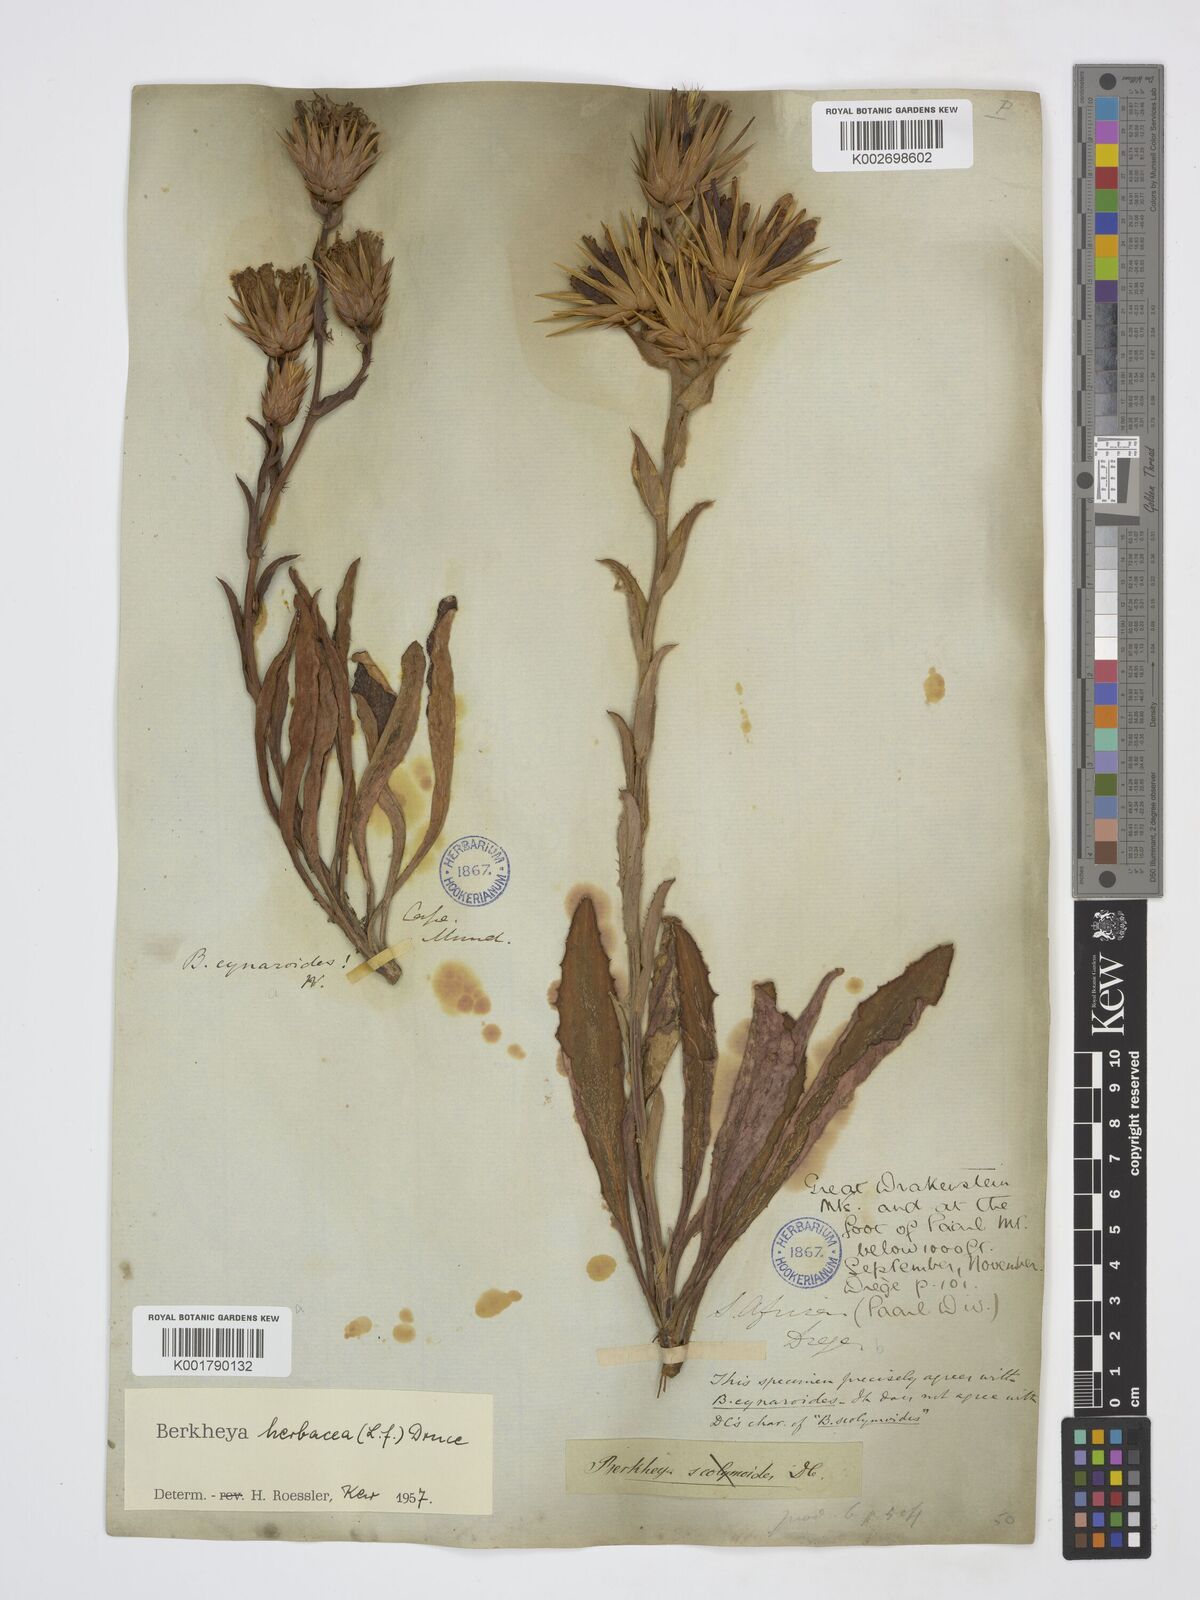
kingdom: Plantae
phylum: Tracheophyta
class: Magnoliopsida
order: Asterales
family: Asteraceae
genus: Berkheya
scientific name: Berkheya herbacea
